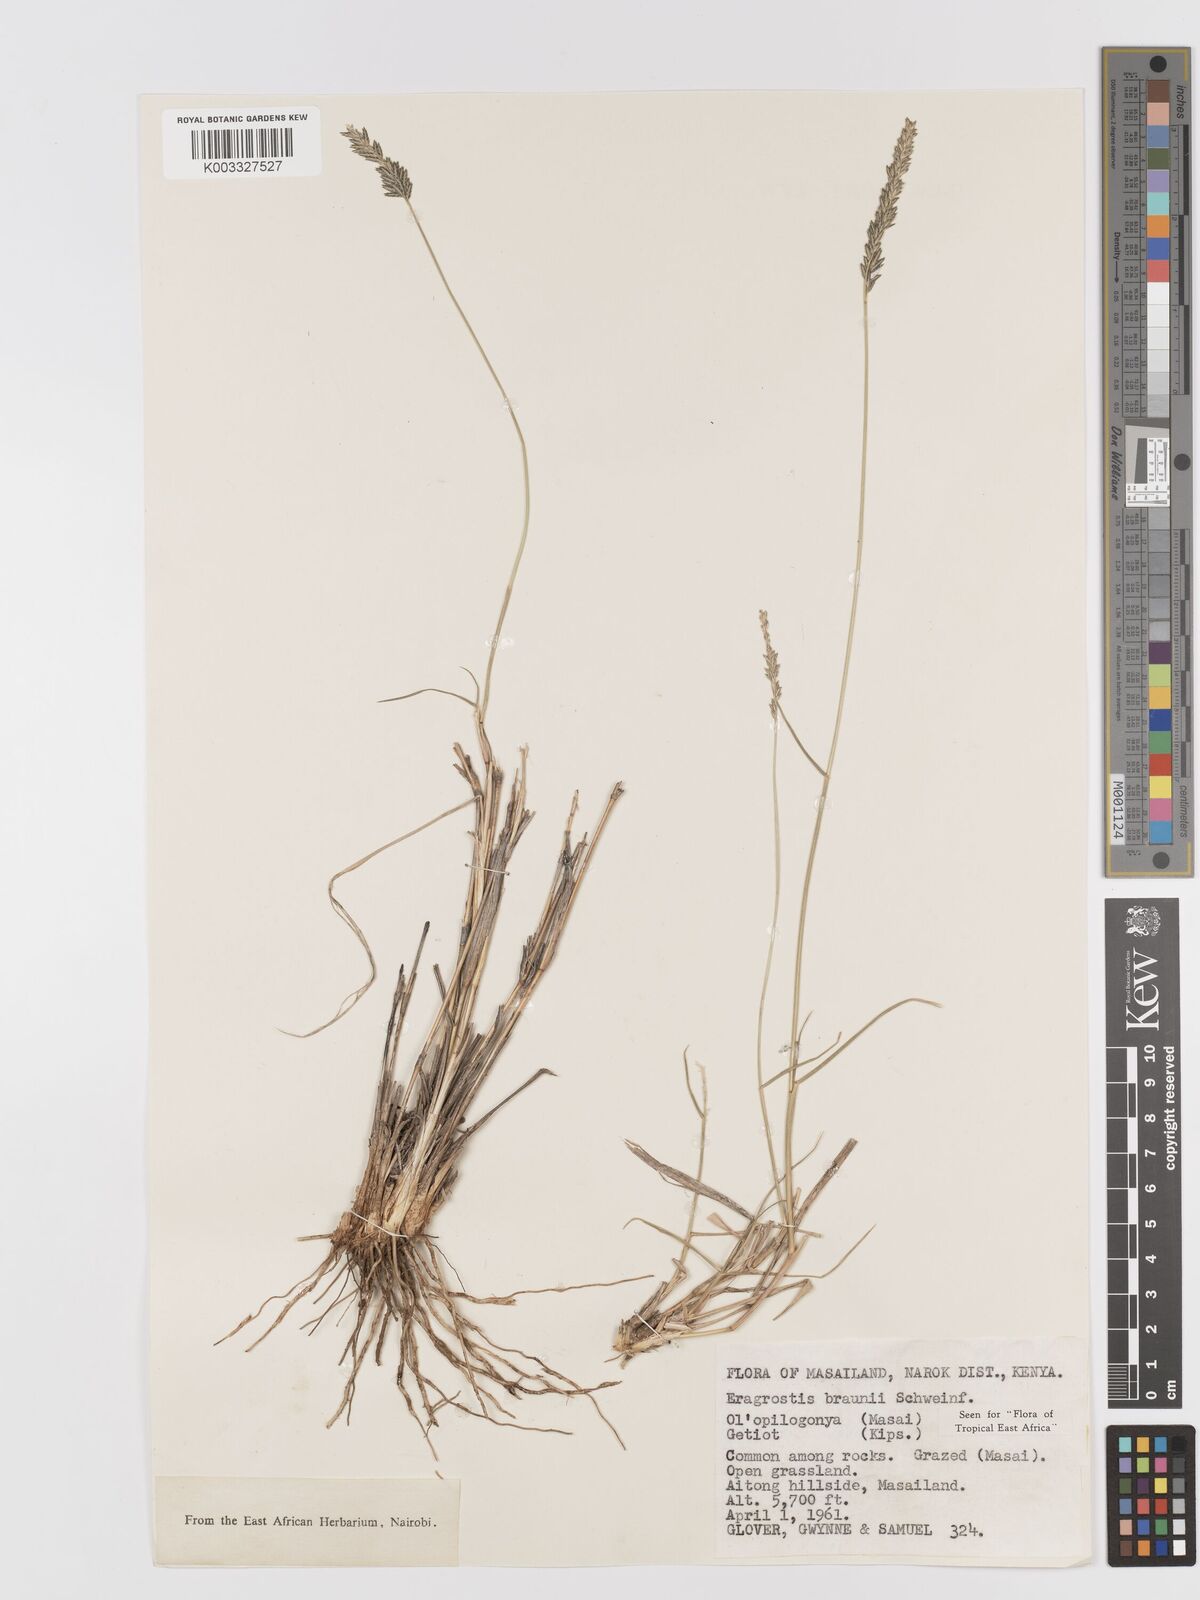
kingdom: Plantae
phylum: Tracheophyta
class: Liliopsida
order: Poales
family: Poaceae
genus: Eragrostis
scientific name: Eragrostis braunii
